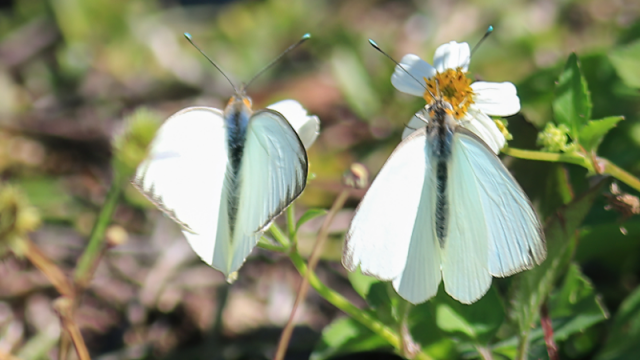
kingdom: Animalia
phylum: Arthropoda
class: Insecta
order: Lepidoptera
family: Pieridae
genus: Ascia
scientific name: Ascia monuste
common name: Great Southern White
